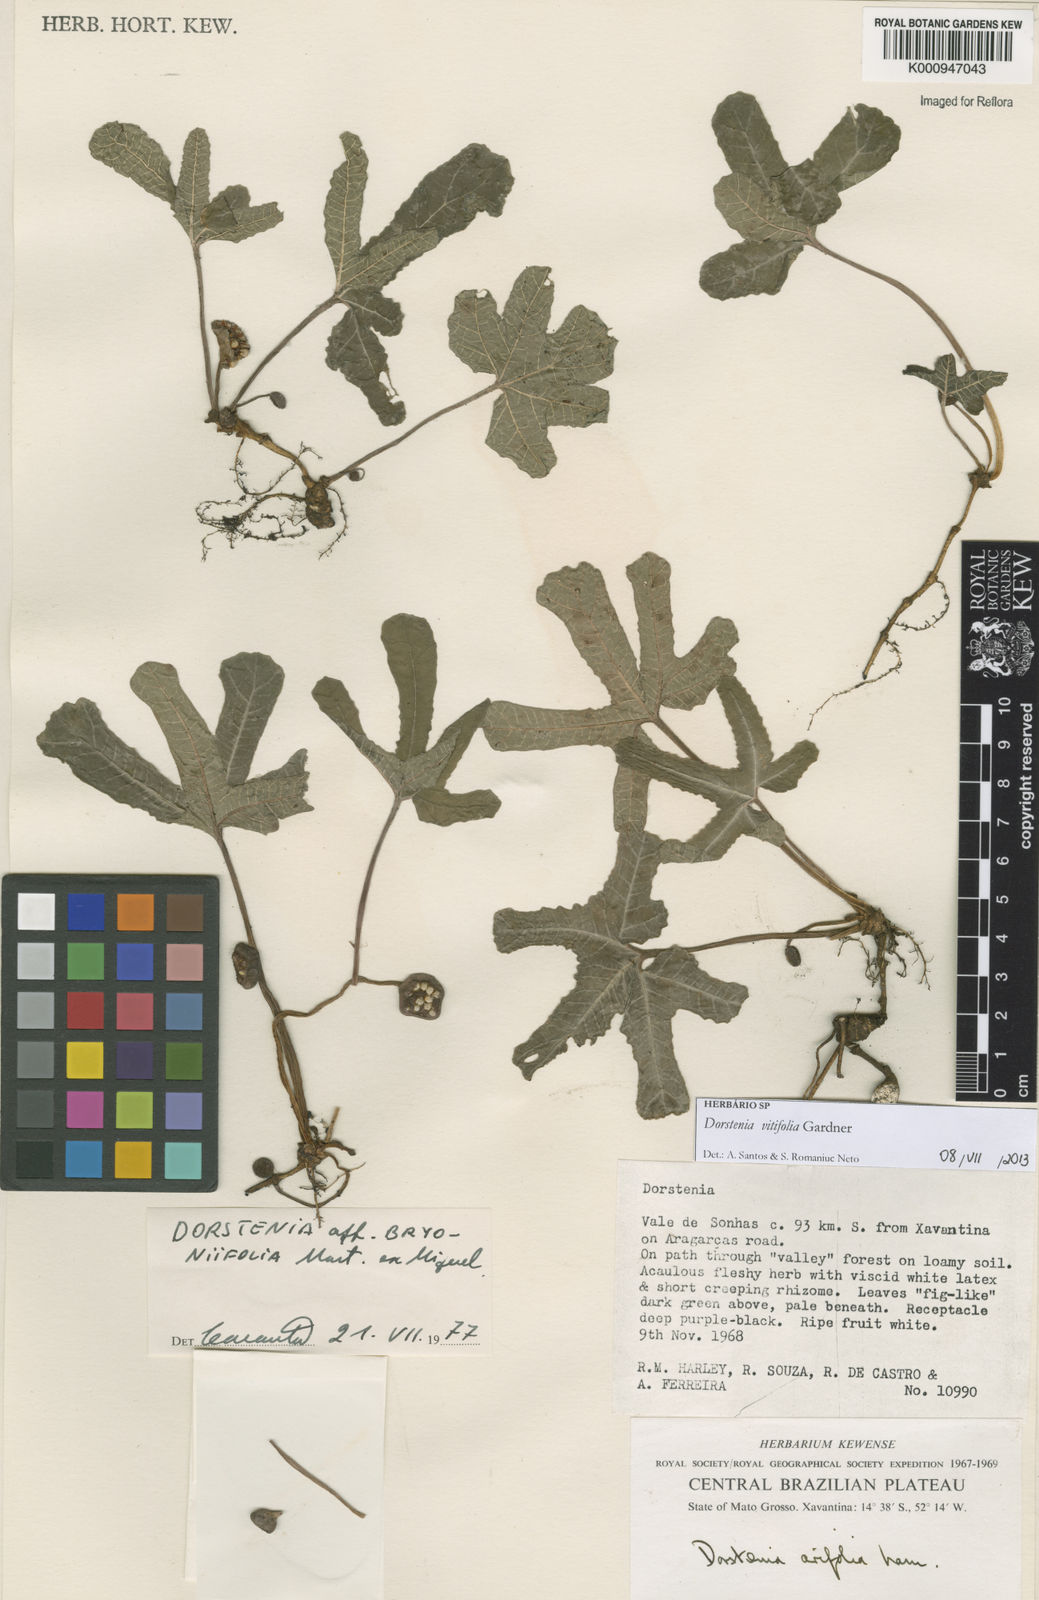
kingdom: Plantae
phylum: Tracheophyta
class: Magnoliopsida
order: Rosales
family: Moraceae
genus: Dorstenia
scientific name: Dorstenia cayapia
